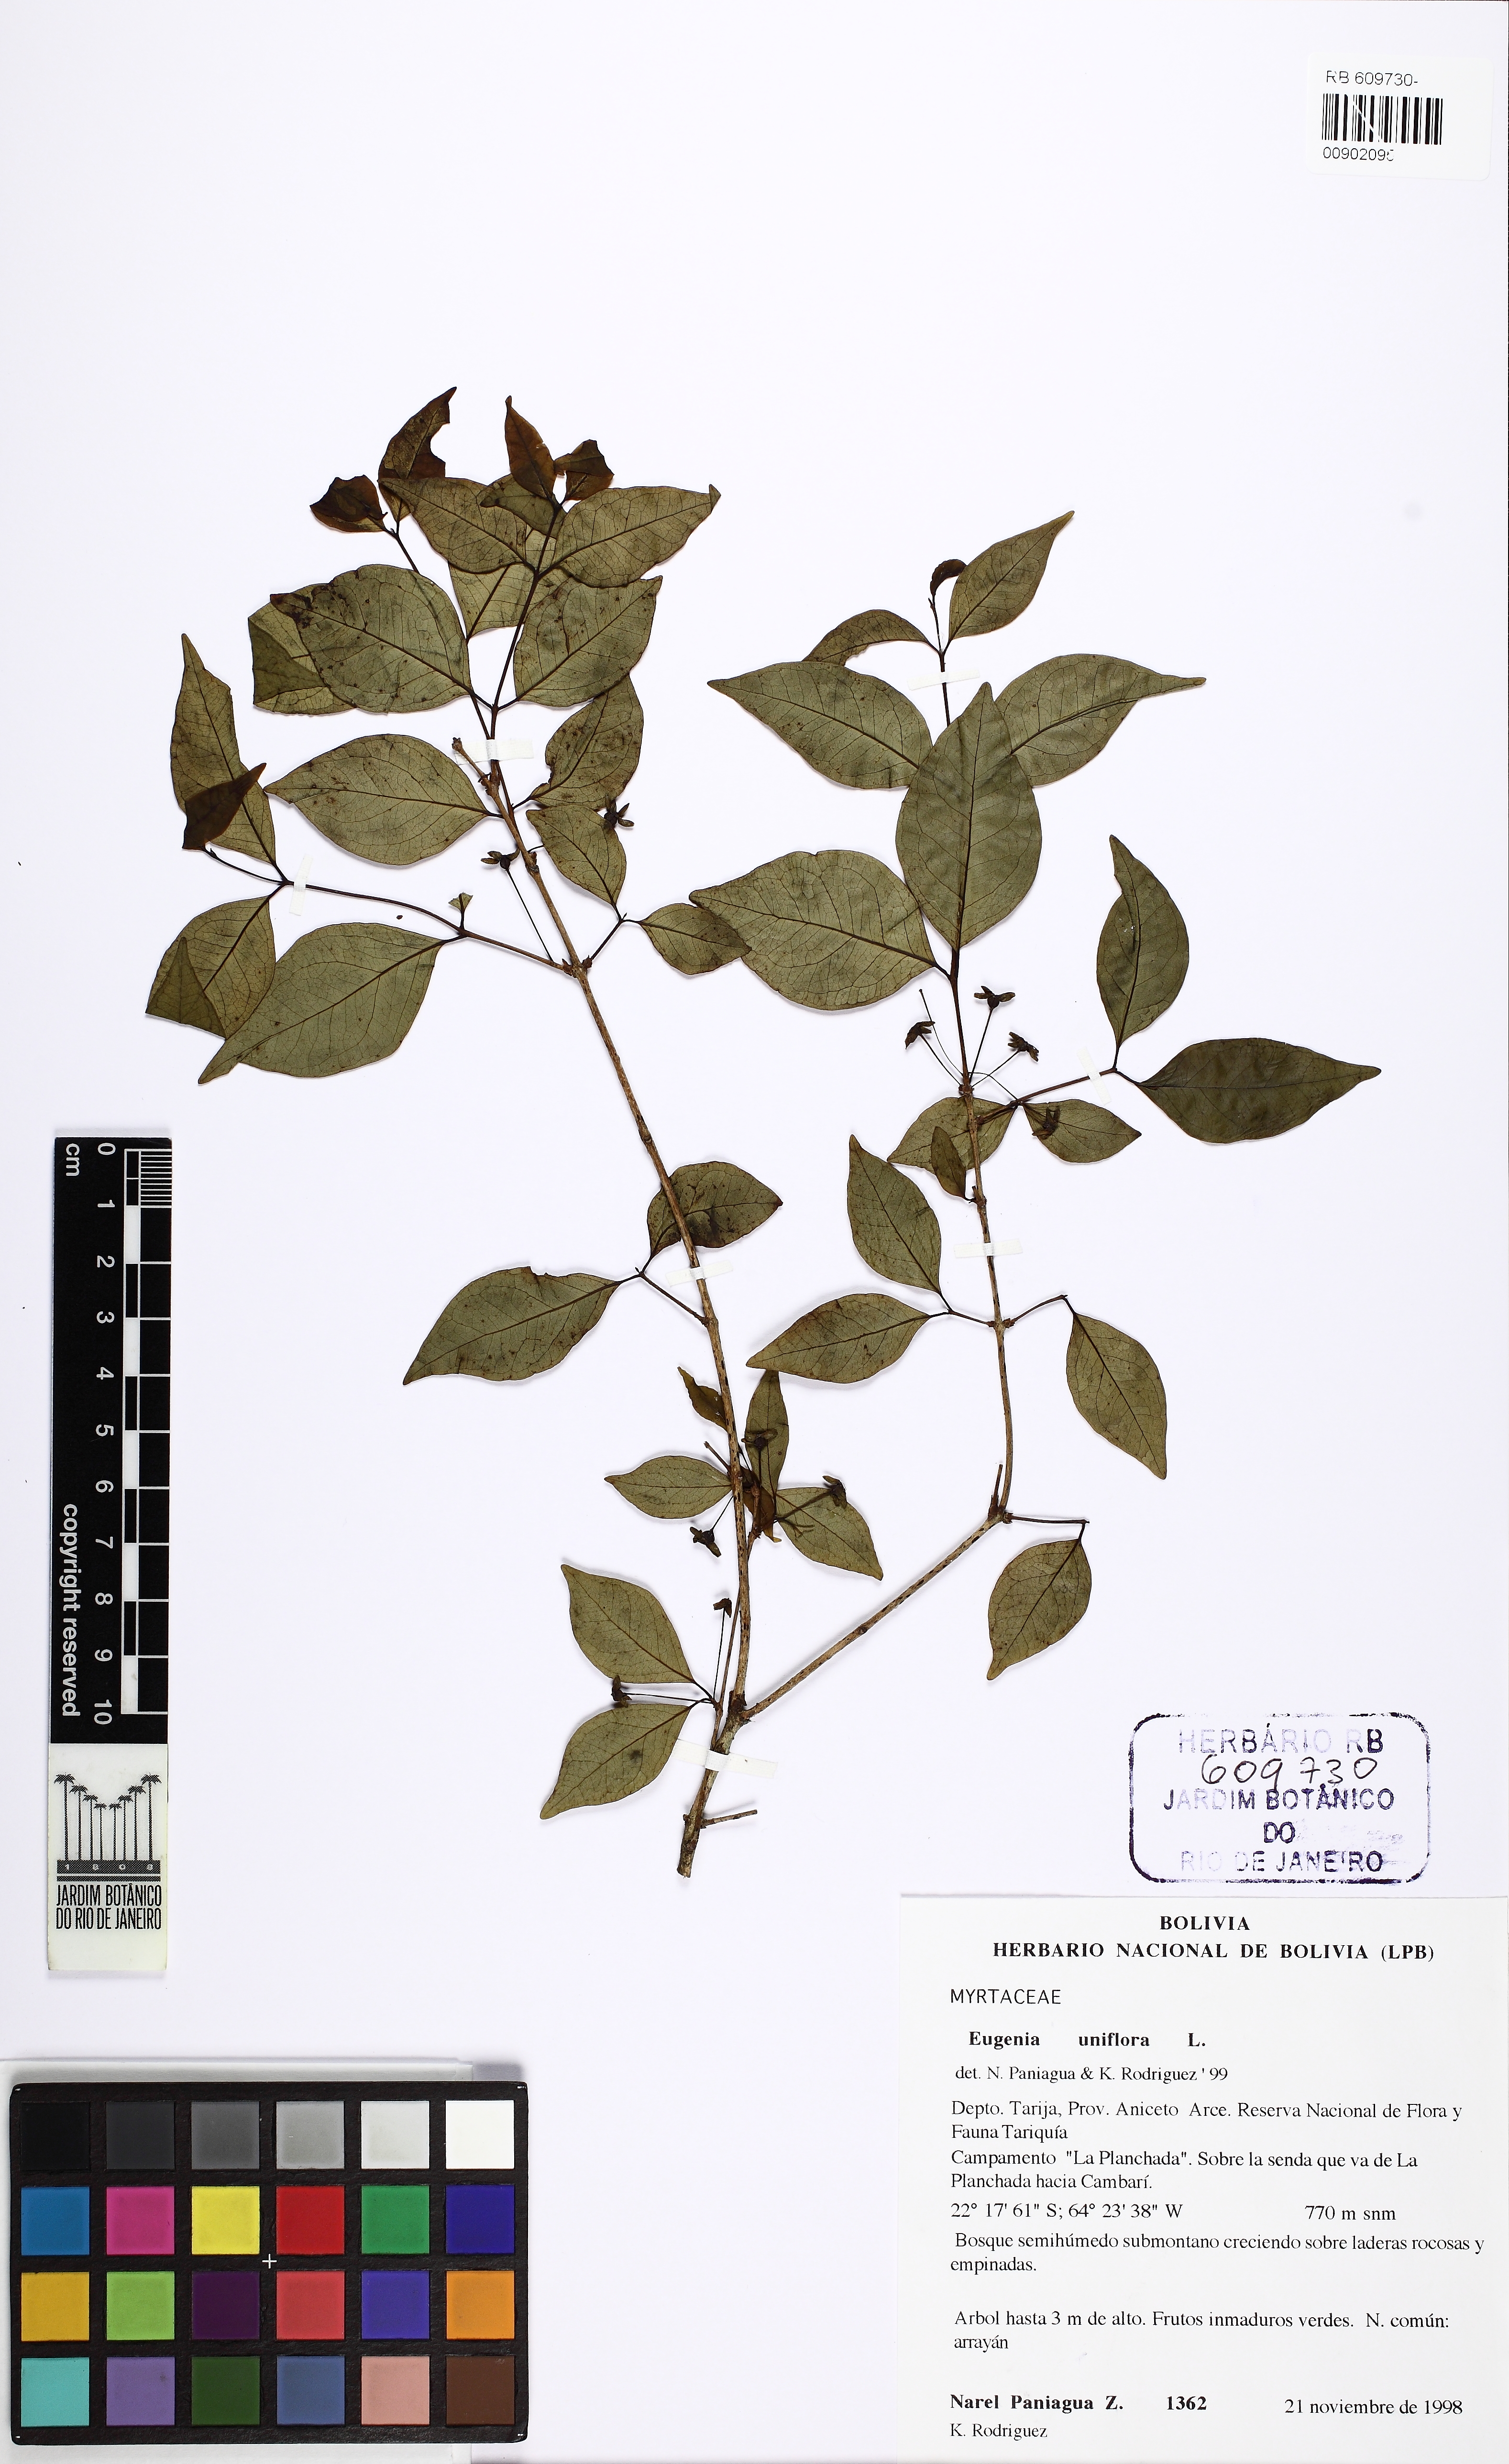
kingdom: Plantae
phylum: Tracheophyta
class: Magnoliopsida
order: Myrtales
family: Myrtaceae
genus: Eugenia
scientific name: Eugenia uniflora
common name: Surinam cherry
